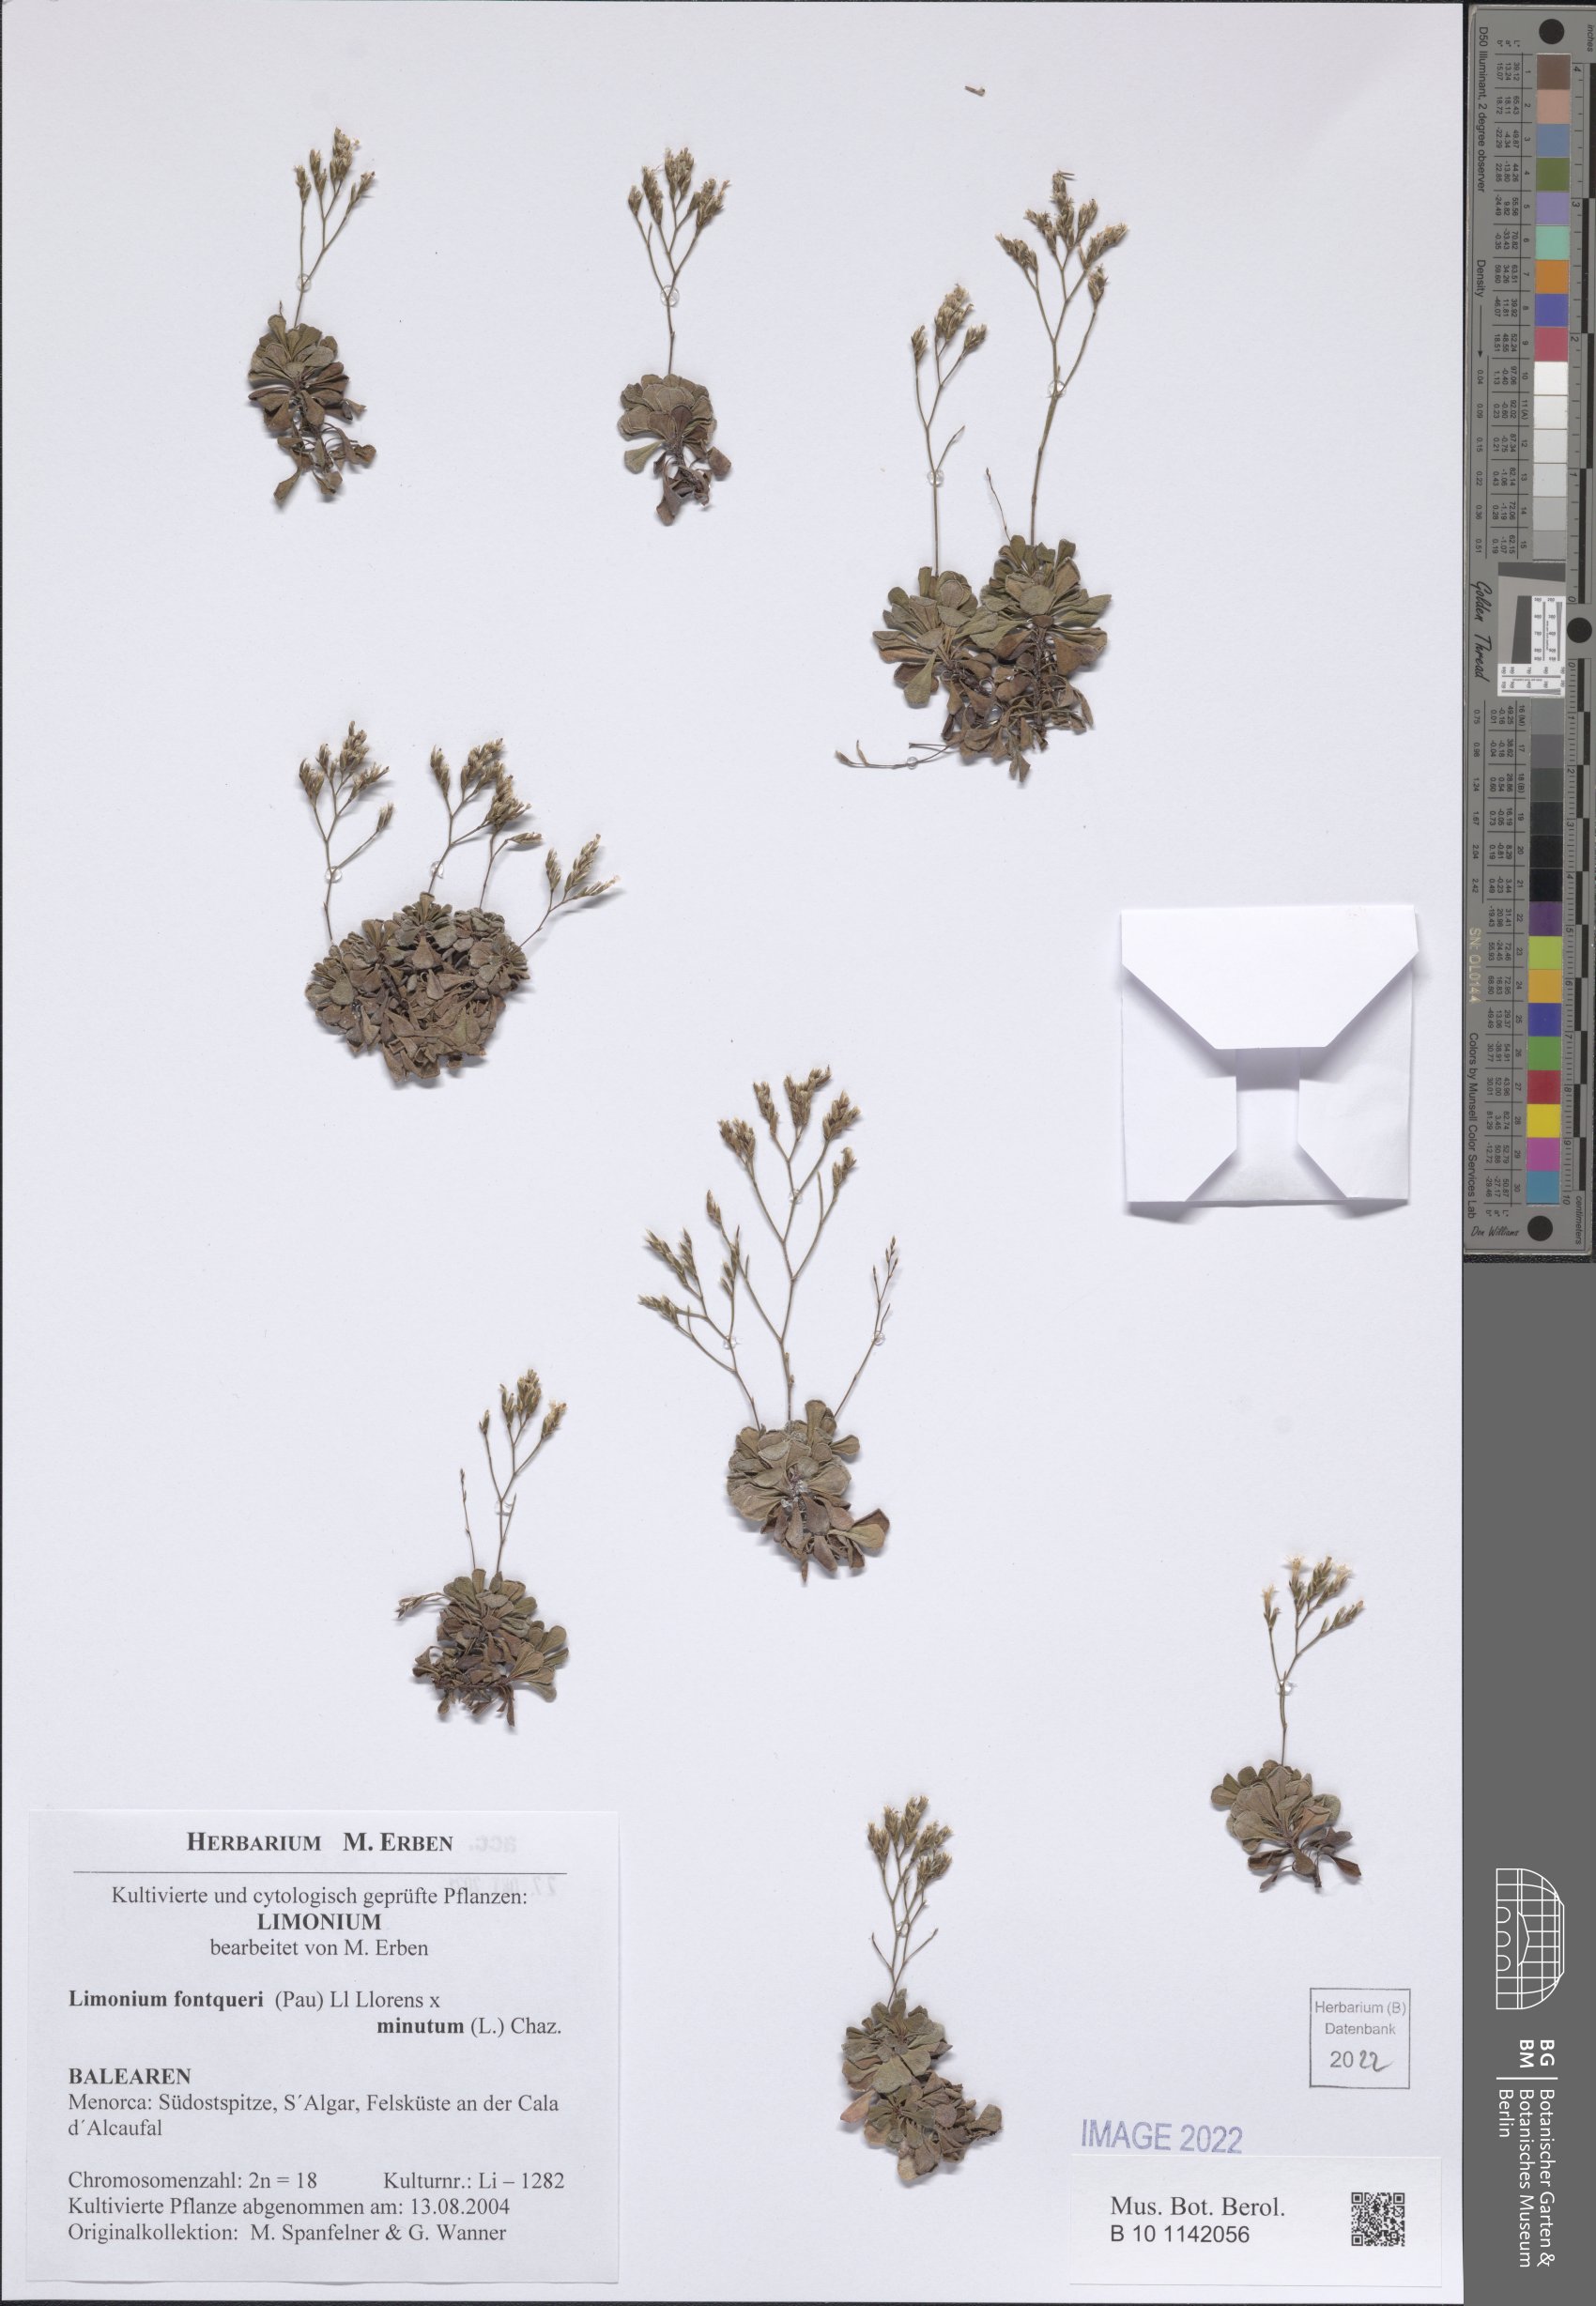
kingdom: Plantae
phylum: Tracheophyta
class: Magnoliopsida
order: Caryophyllales
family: Plumbaginaceae
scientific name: Plumbaginaceae
